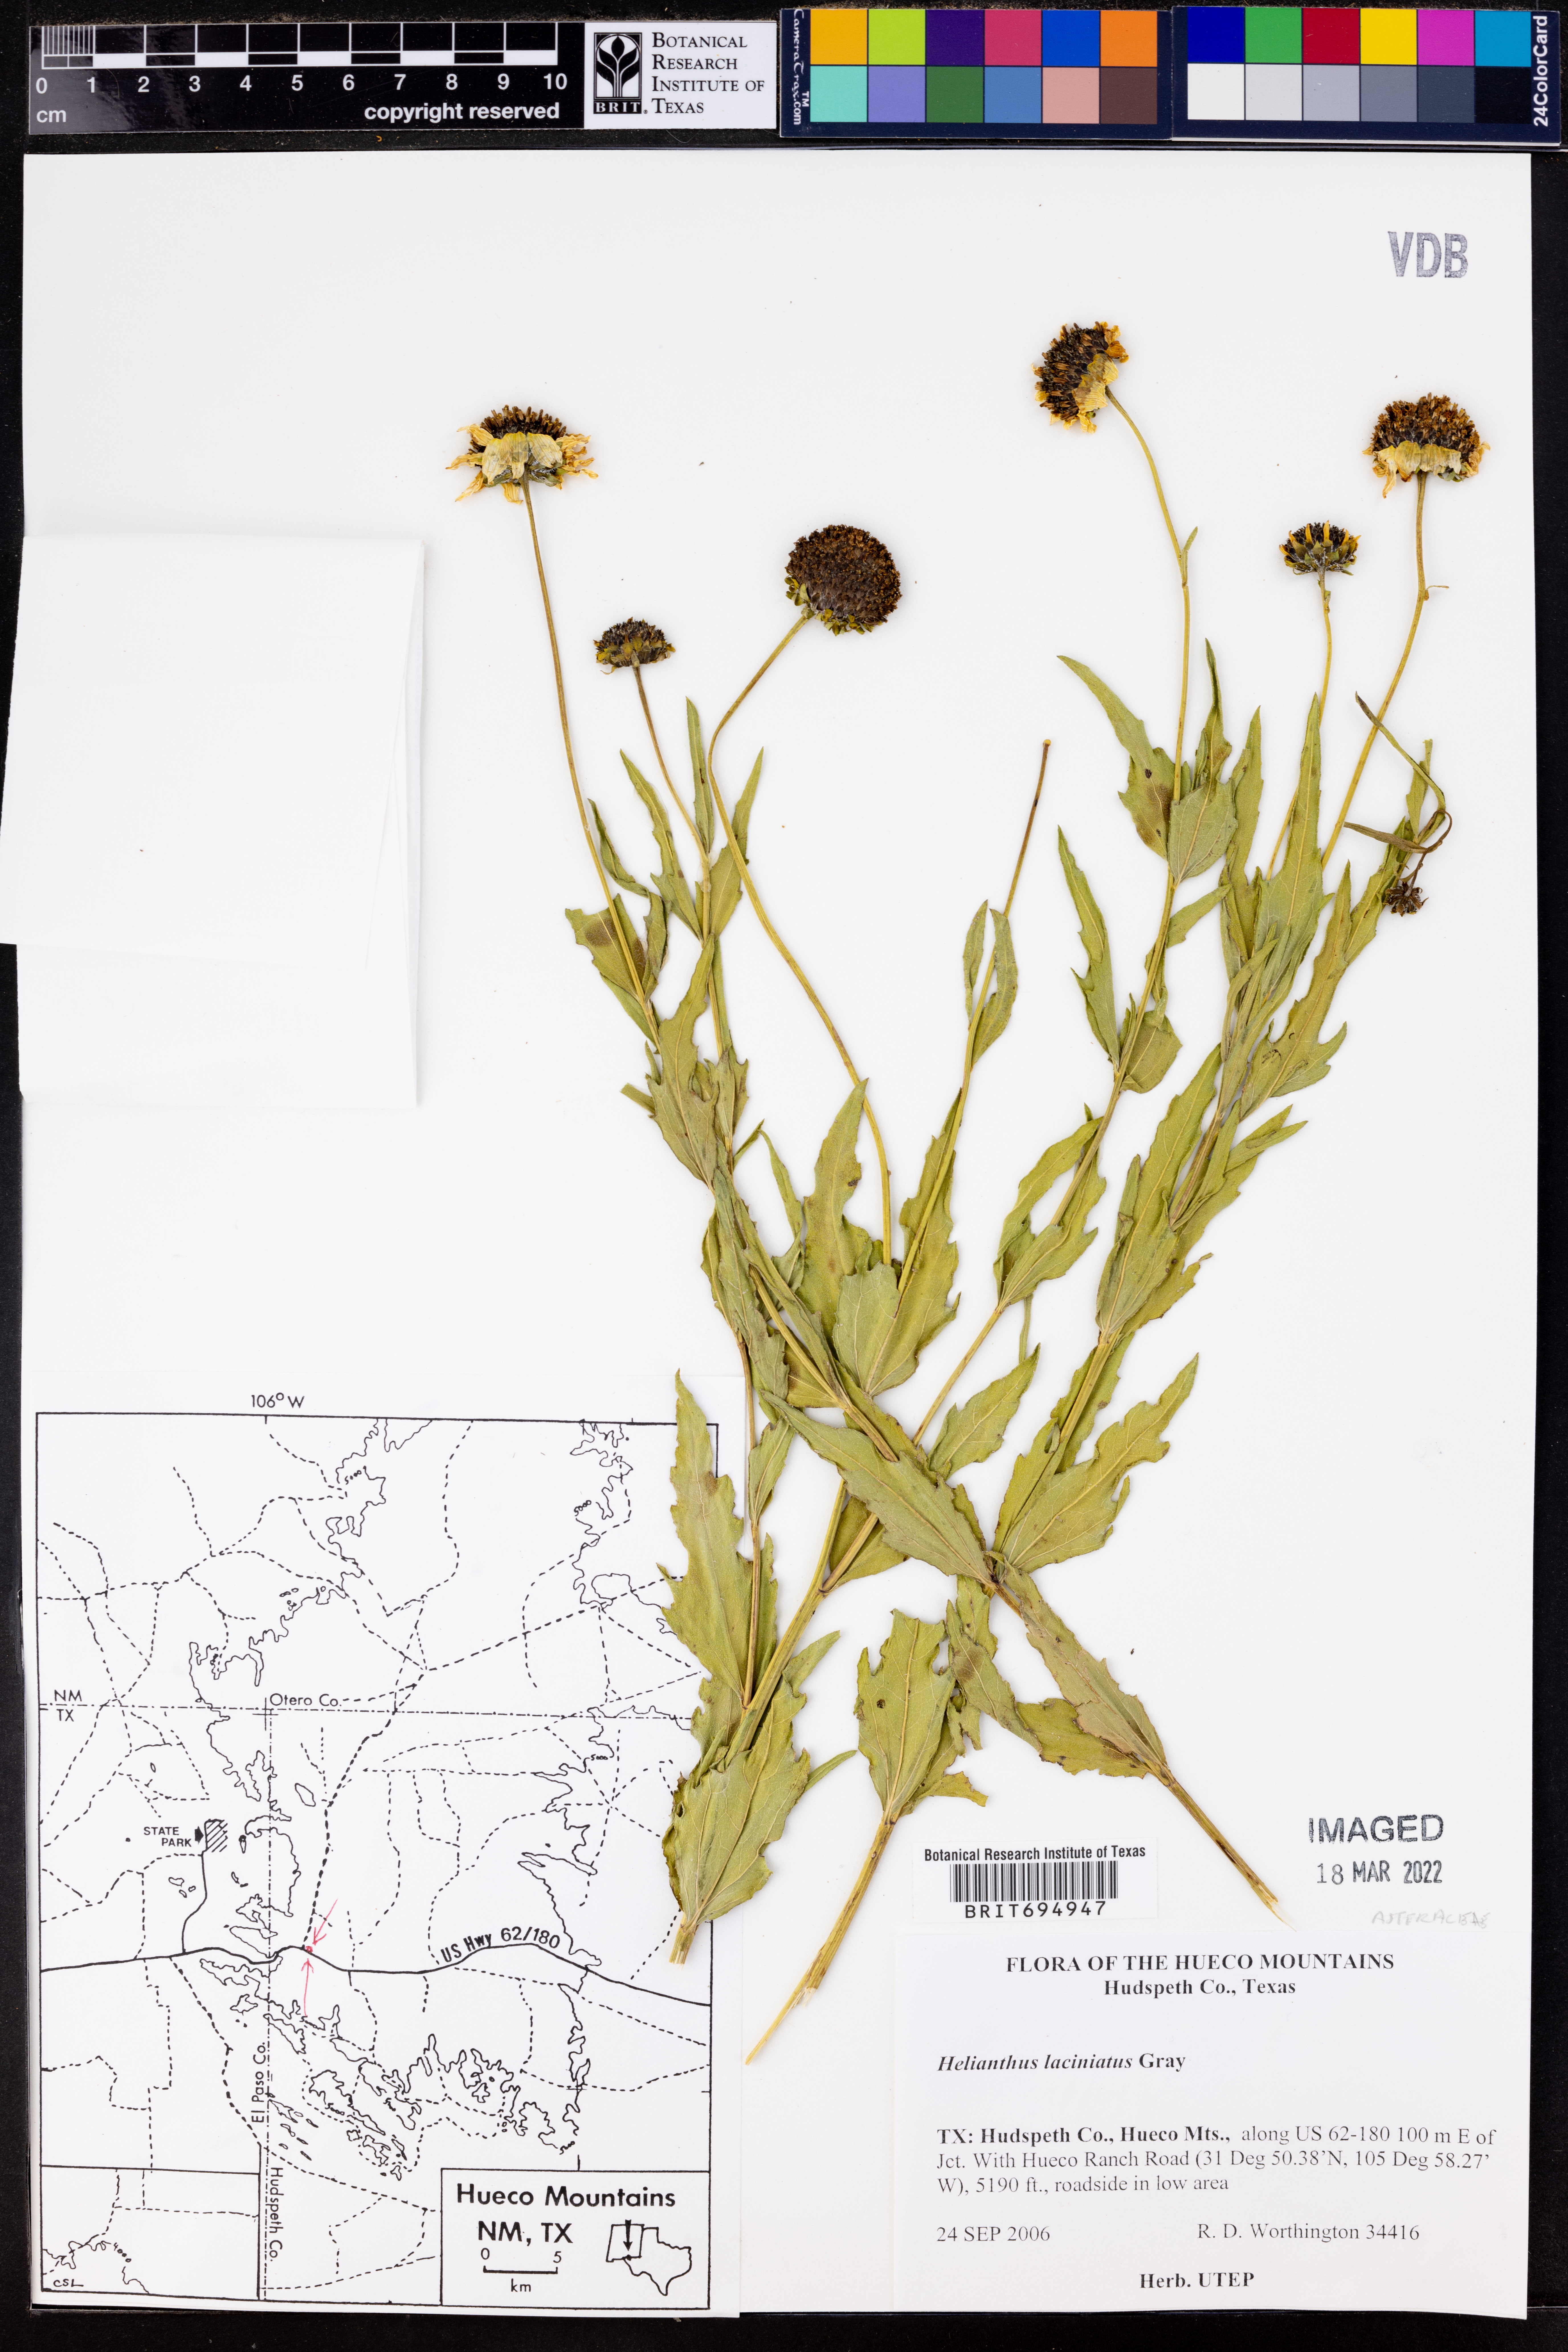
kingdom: Plantae
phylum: Tracheophyta
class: Magnoliopsida
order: Asterales
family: Asteraceae
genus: Helianthus
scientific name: Helianthus laciniatus
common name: Jagged-edge sunflower
